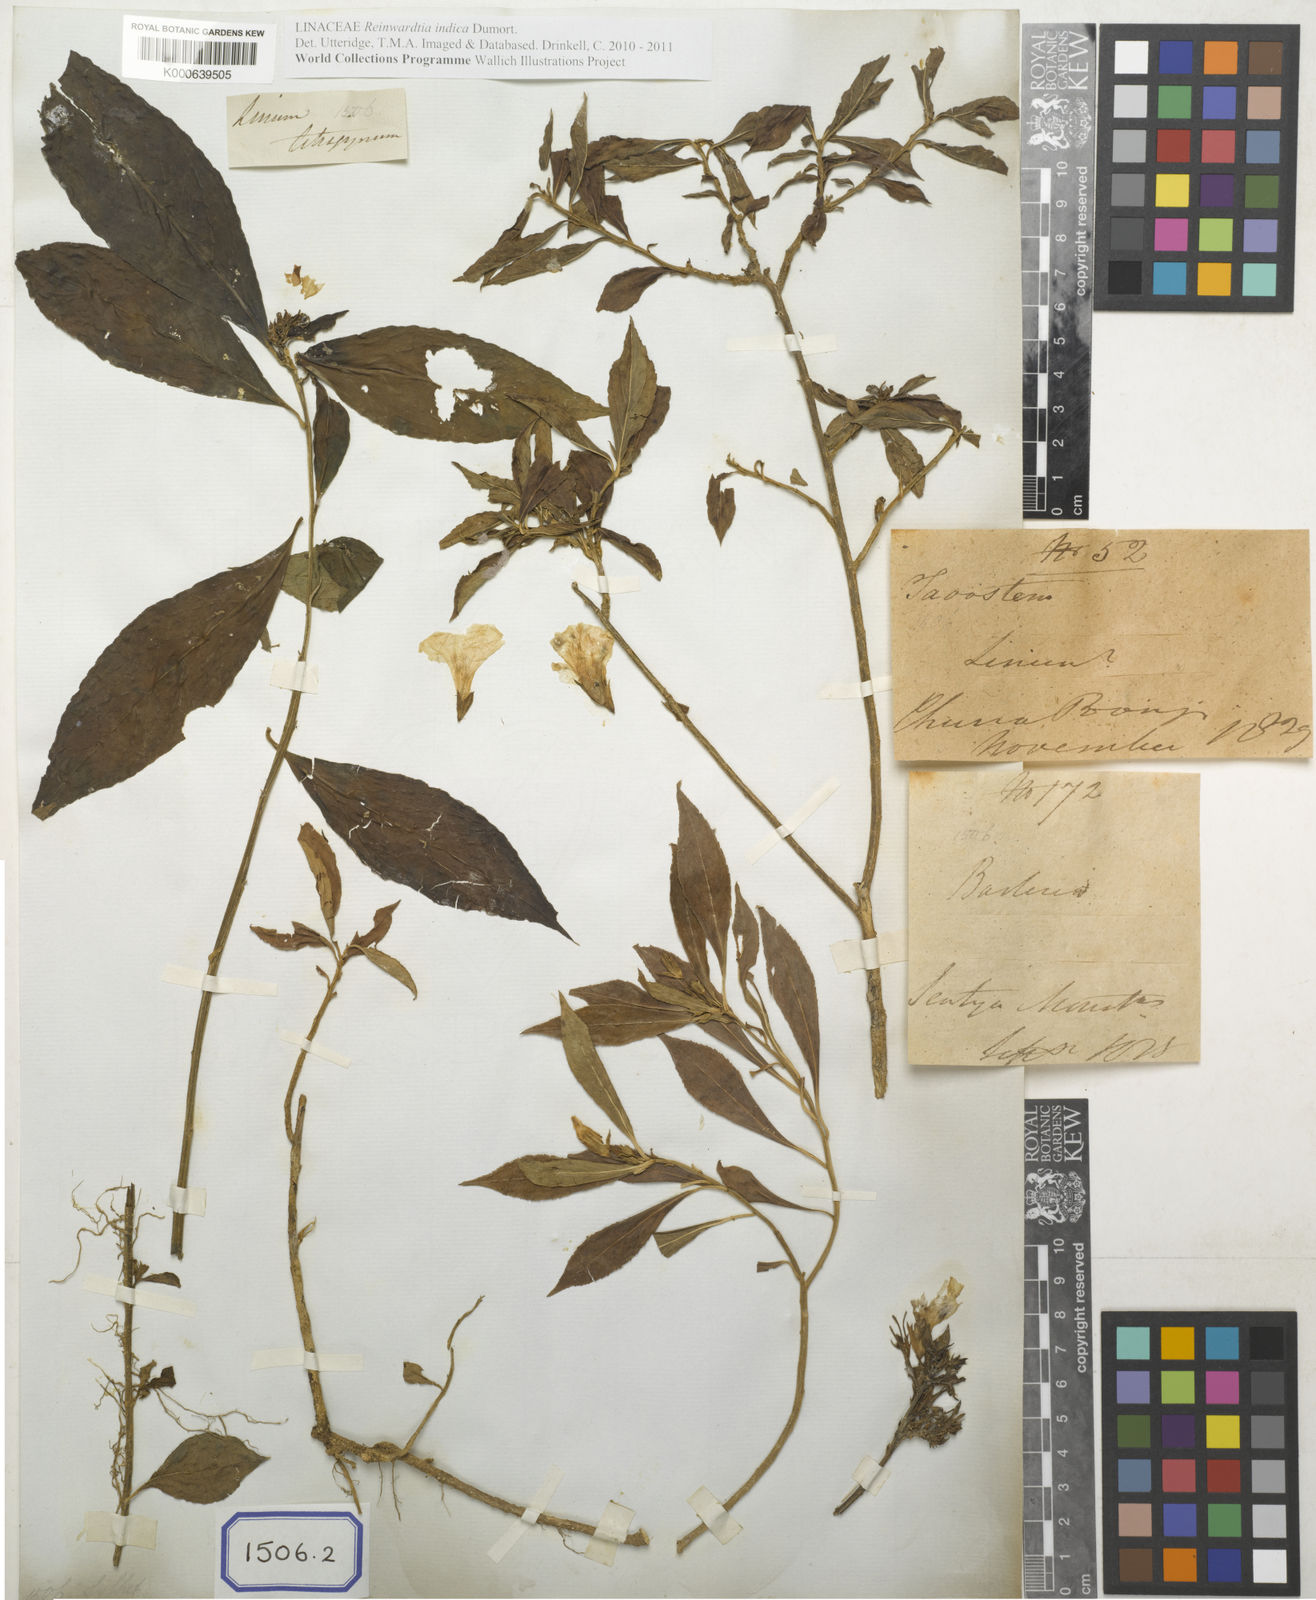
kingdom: Plantae
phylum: Tracheophyta
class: Magnoliopsida
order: Malpighiales
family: Linaceae
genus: Linum
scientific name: Linum
